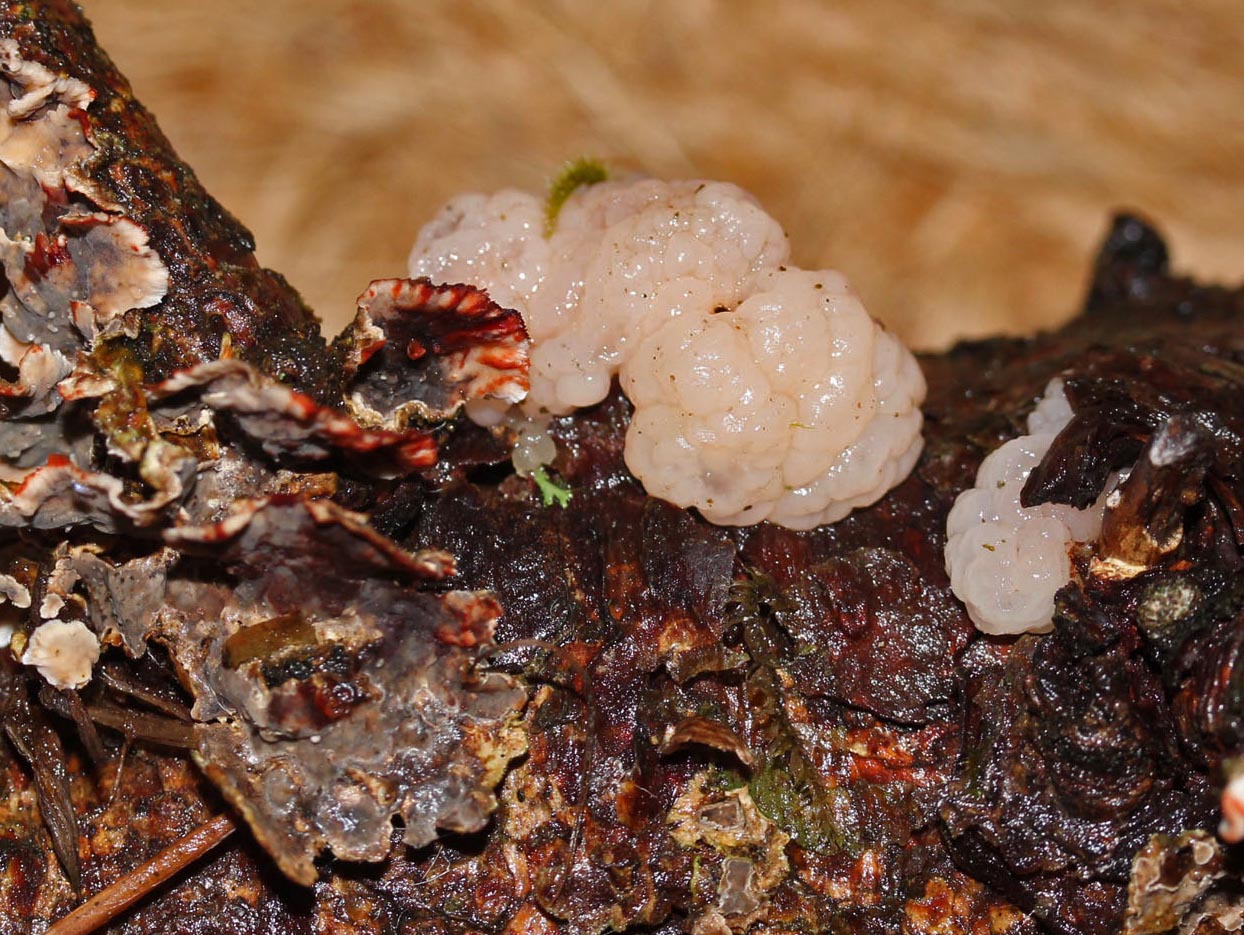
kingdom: Fungi
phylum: Basidiomycota
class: Tremellomycetes
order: Tremellales
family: Naemateliaceae
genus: Naematelia
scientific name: Naematelia encephala
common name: fyrre-bævresvamp
